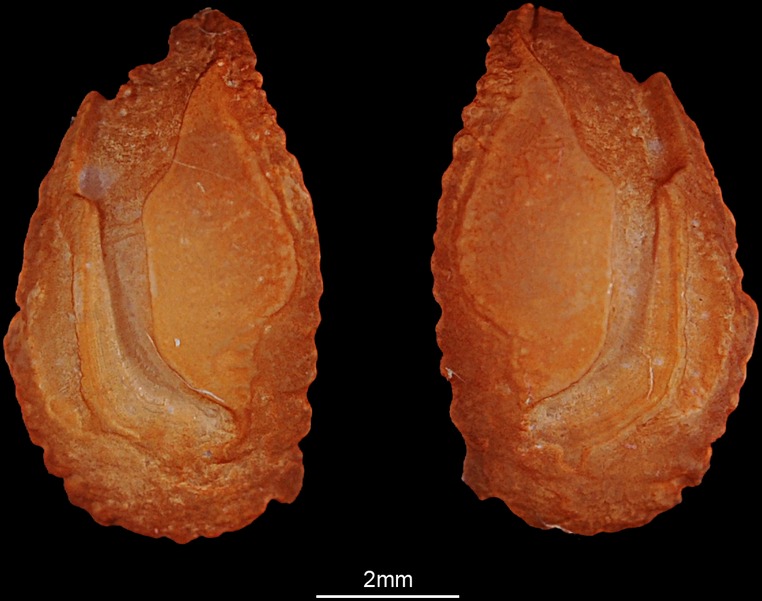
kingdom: Animalia
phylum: Chordata
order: Perciformes
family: Lethrinidae
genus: Lethrinus
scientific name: Lethrinus microdon
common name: Smalltooth emperor
